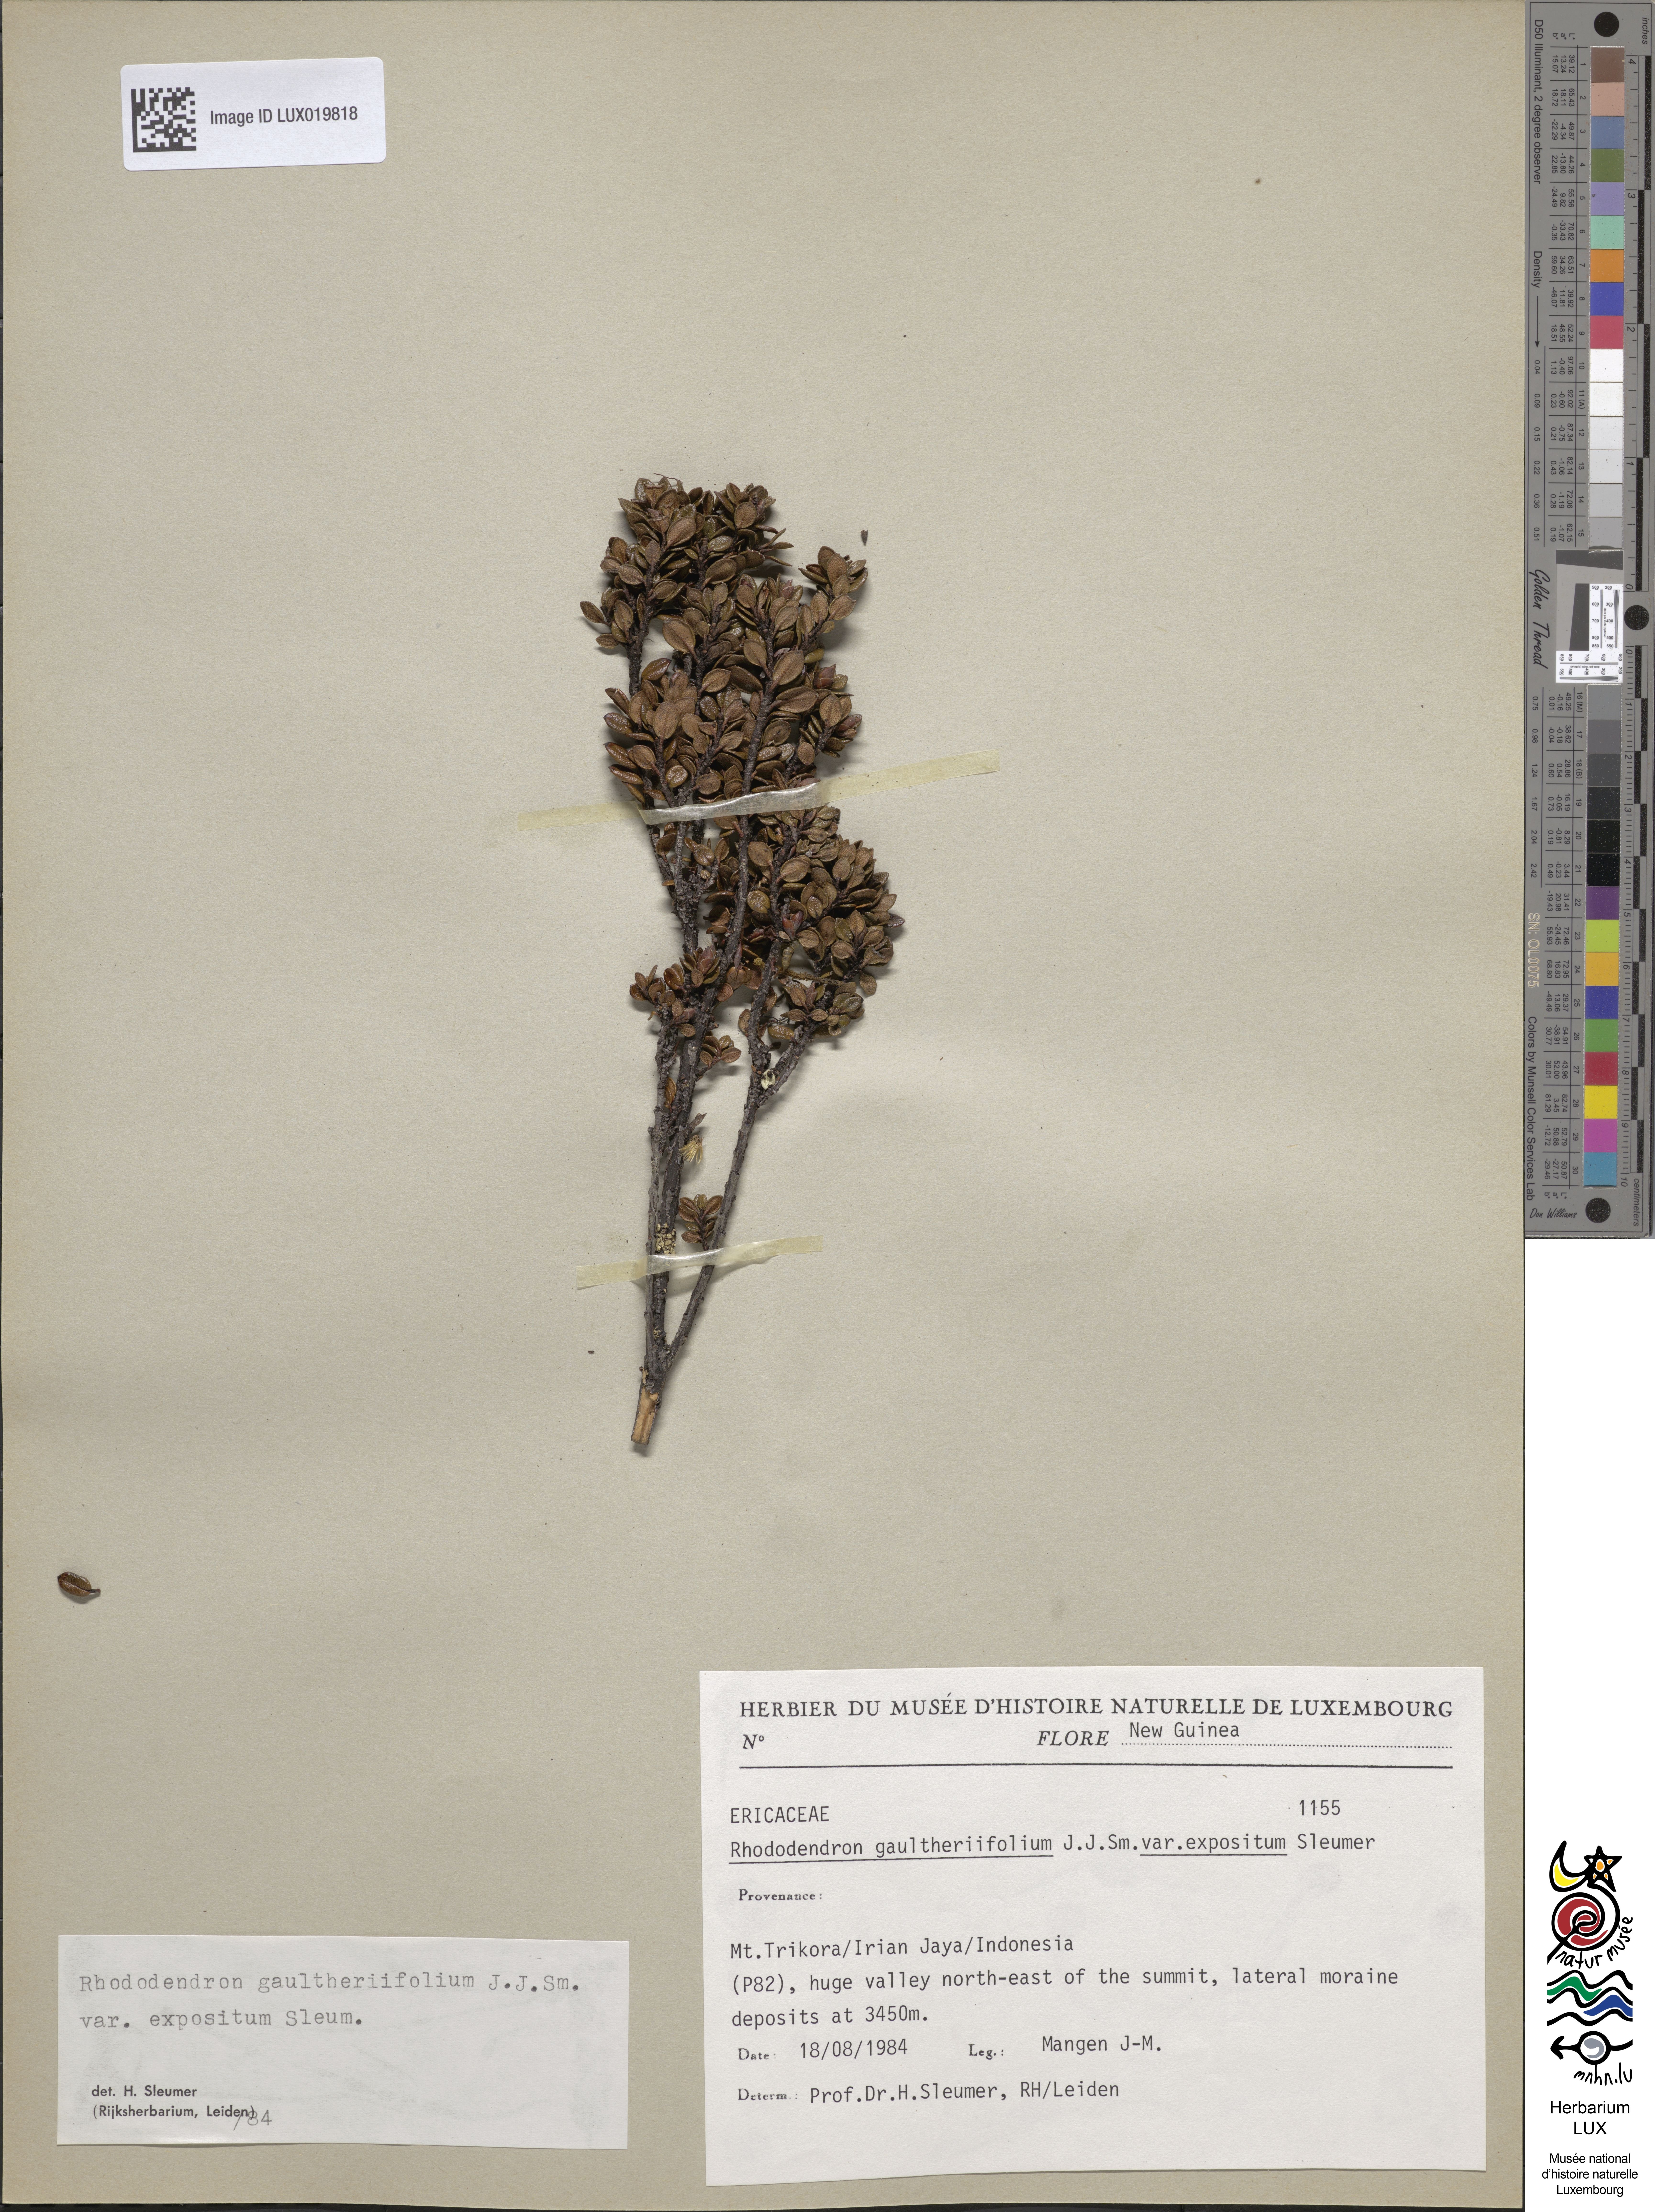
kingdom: Plantae
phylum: Tracheophyta
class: Magnoliopsida
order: Ericales
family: Ericaceae
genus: Rhododendron
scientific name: Rhododendron gaultheriifolium
